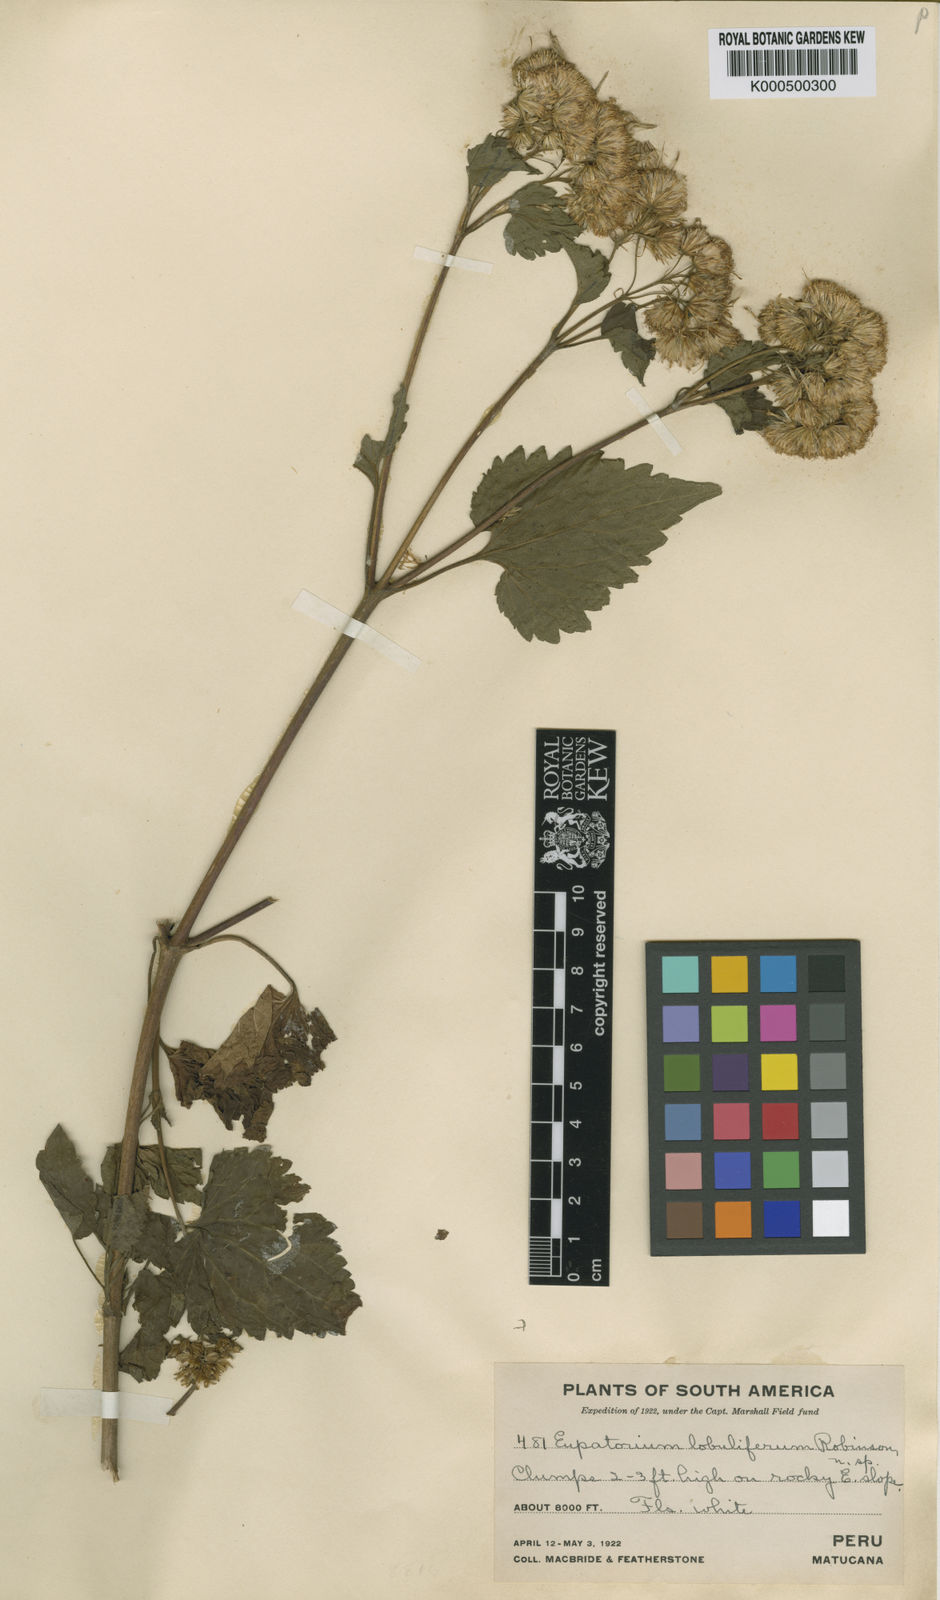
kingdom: Plantae
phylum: Tracheophyta
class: Magnoliopsida
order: Asterales
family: Asteraceae
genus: Ageratina
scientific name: Ageratina lobulifera
